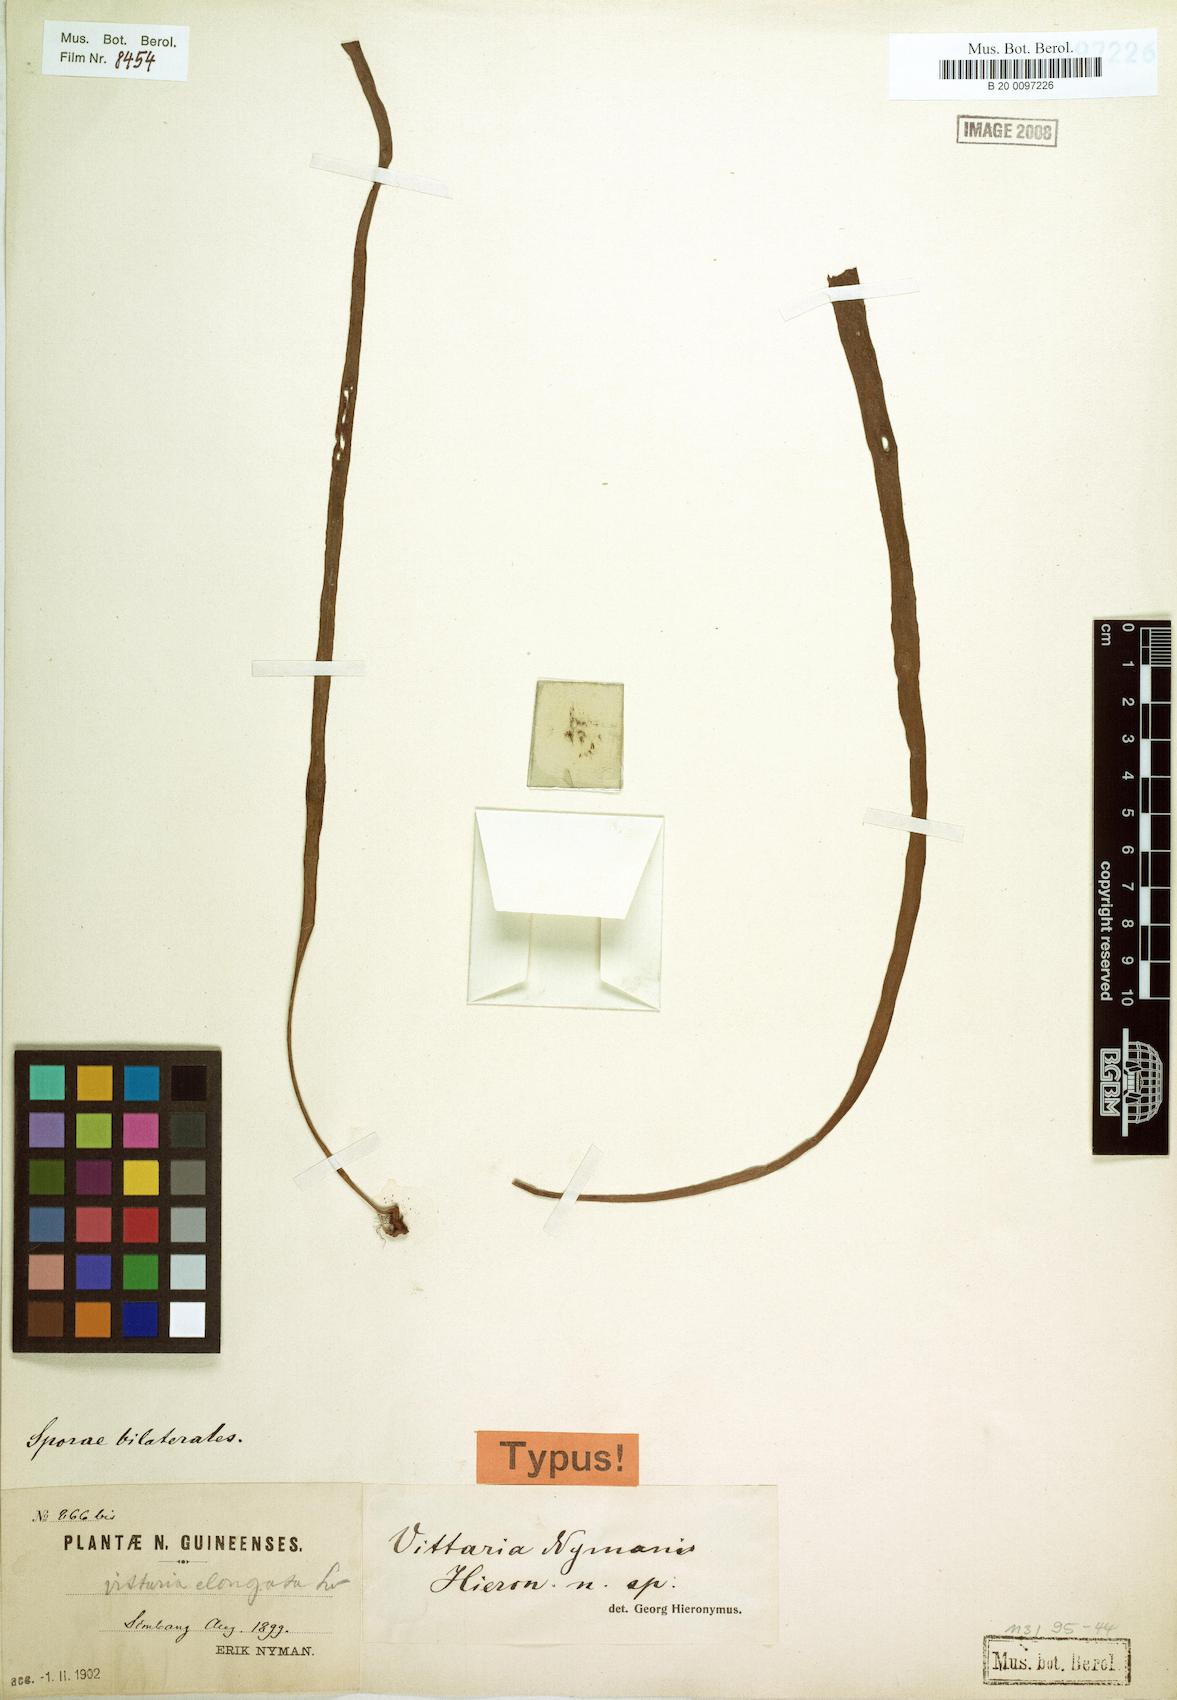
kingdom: Plantae
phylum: Tracheophyta
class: Polypodiopsida
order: Polypodiales
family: Pteridaceae
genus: Haplopteris
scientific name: Haplopteris elongata
